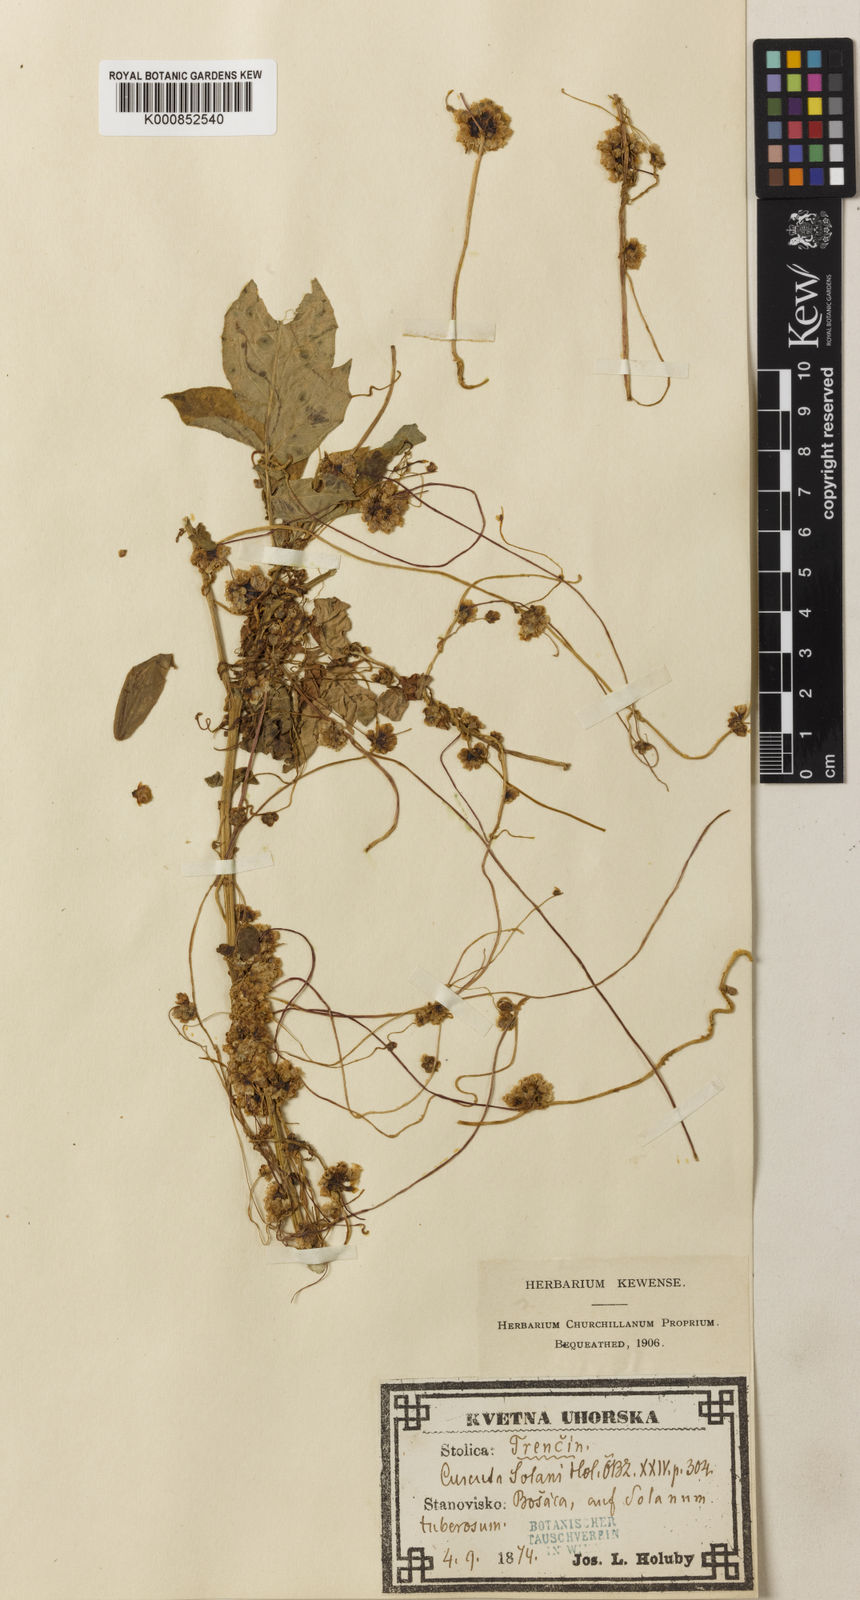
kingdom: Plantae
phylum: Tracheophyta
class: Magnoliopsida
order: Solanales
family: Convolvulaceae
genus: Cuscuta
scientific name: Cuscuta europaea
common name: Greater dodder
